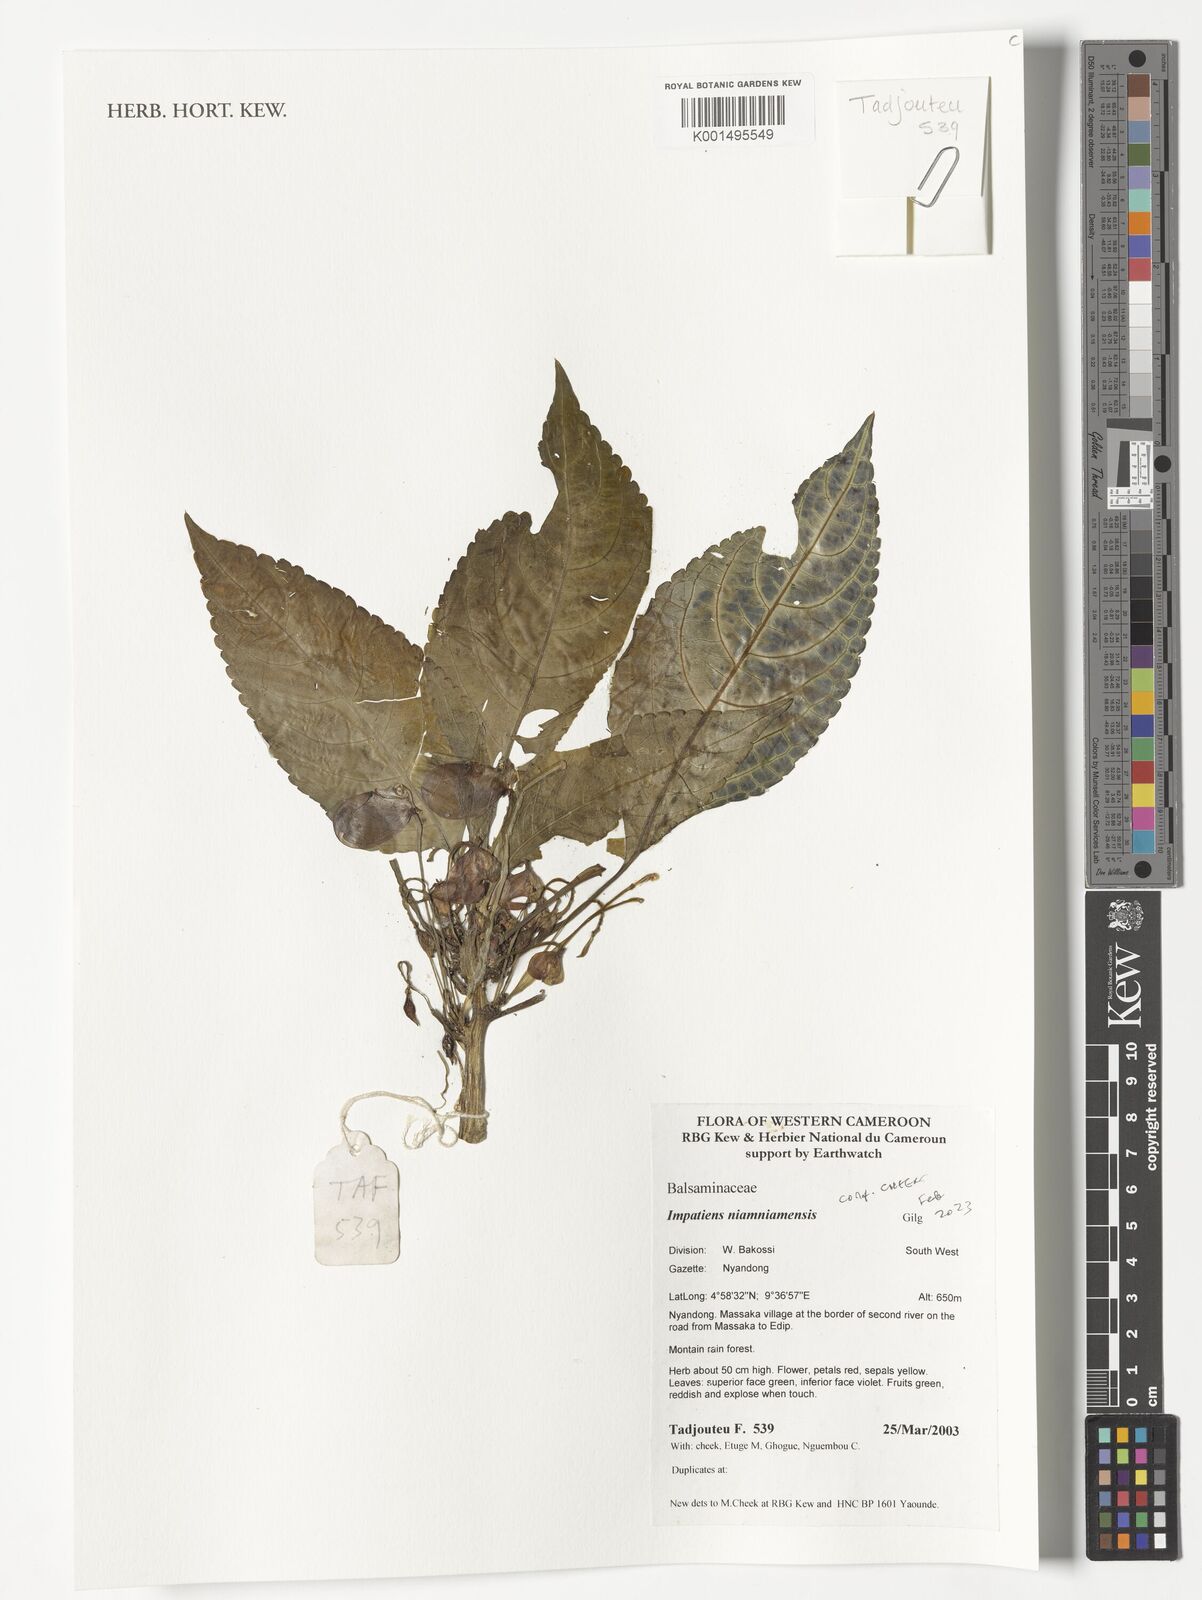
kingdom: Plantae
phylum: Tracheophyta
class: Magnoliopsida
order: Ericales
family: Balsaminaceae
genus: Impatiens
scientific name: Impatiens niamniamensis
